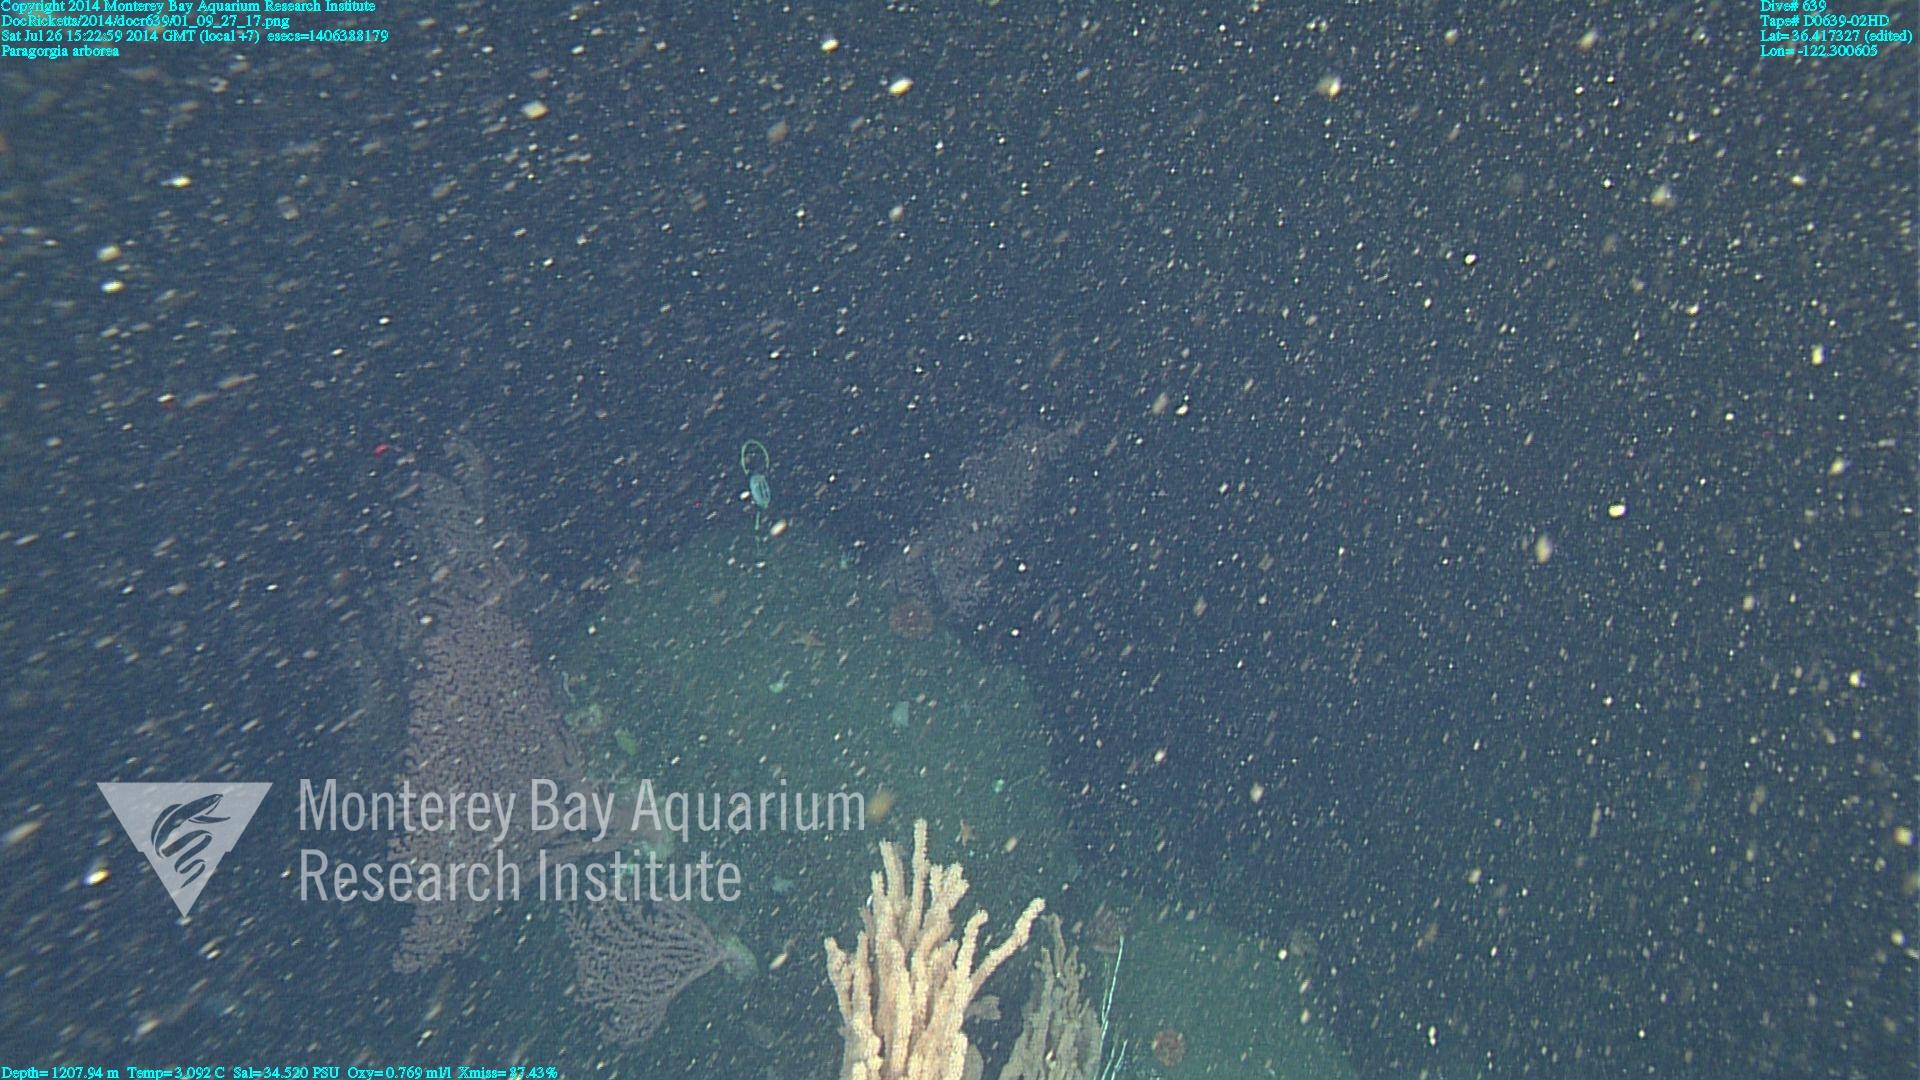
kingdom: Animalia
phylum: Cnidaria
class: Anthozoa
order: Scleralcyonacea
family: Coralliidae
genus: Paragorgia
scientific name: Paragorgia arborea
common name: Bubble gum coral
